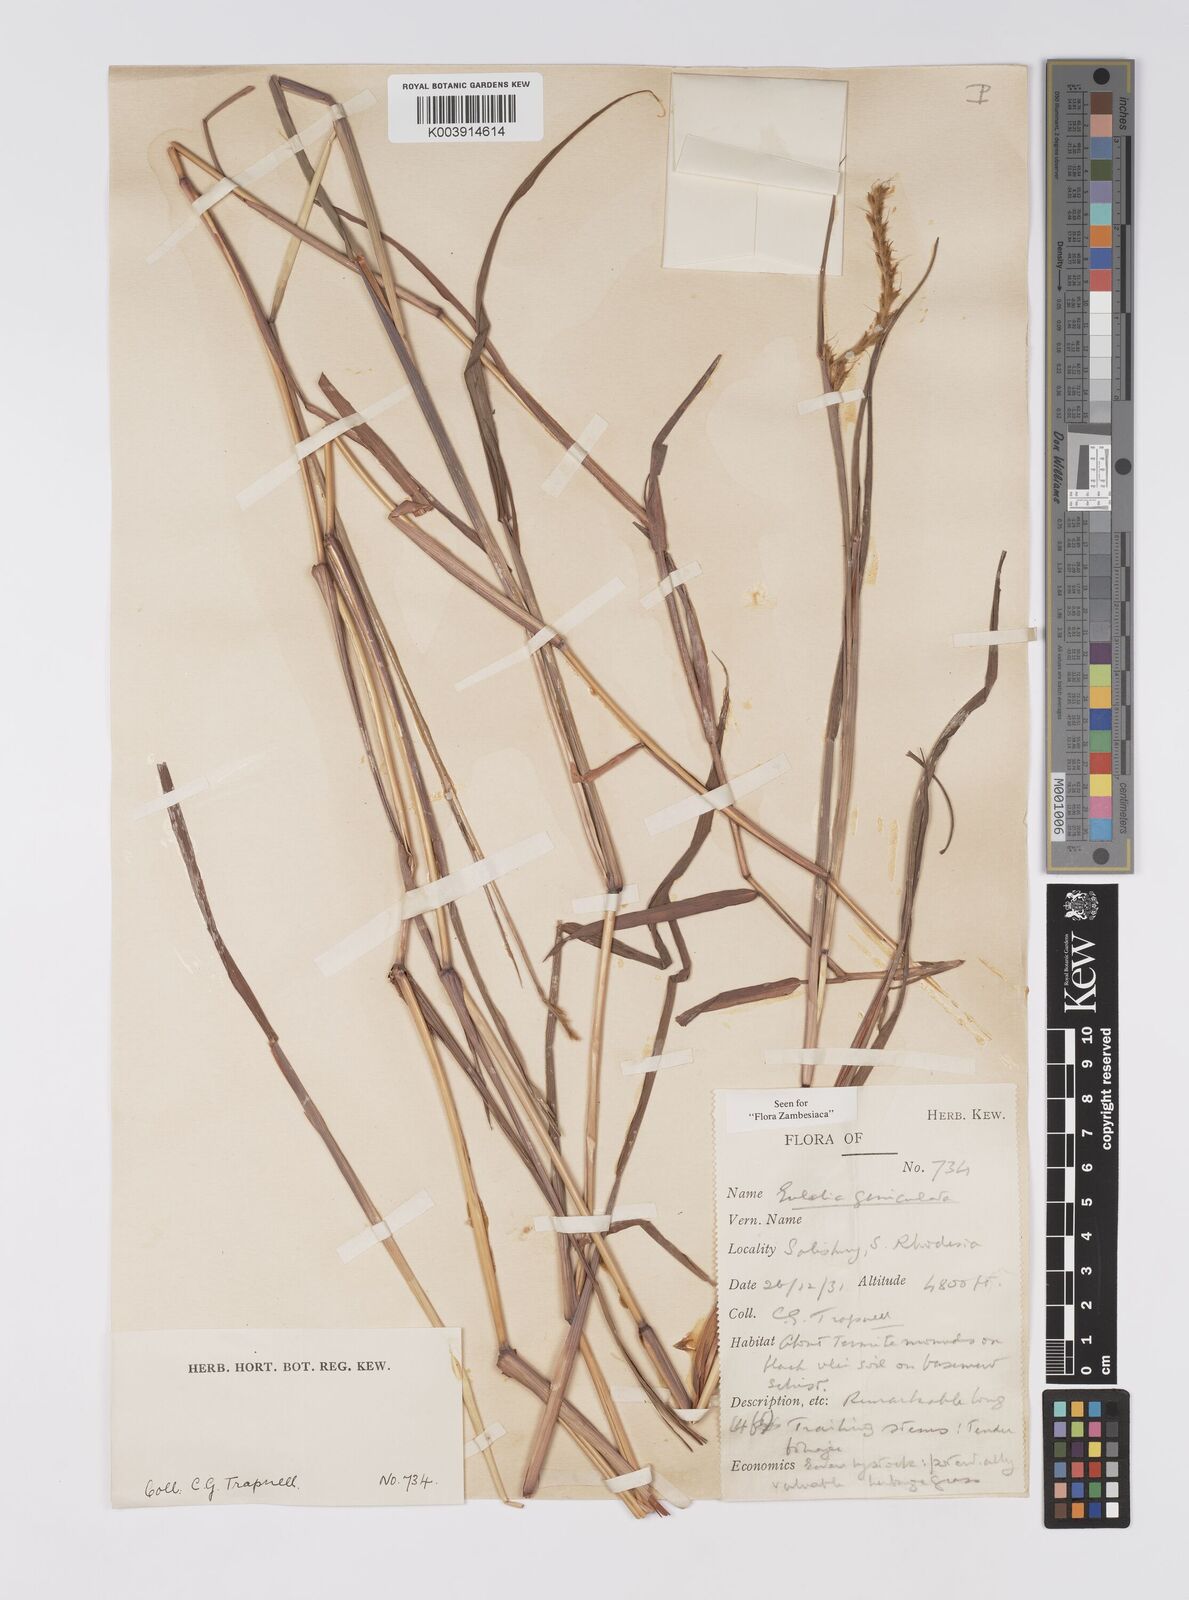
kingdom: Plantae
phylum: Tracheophyta
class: Liliopsida
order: Poales
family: Poaceae
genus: Eulalia
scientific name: Eulalia aurea
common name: Silky browntop
